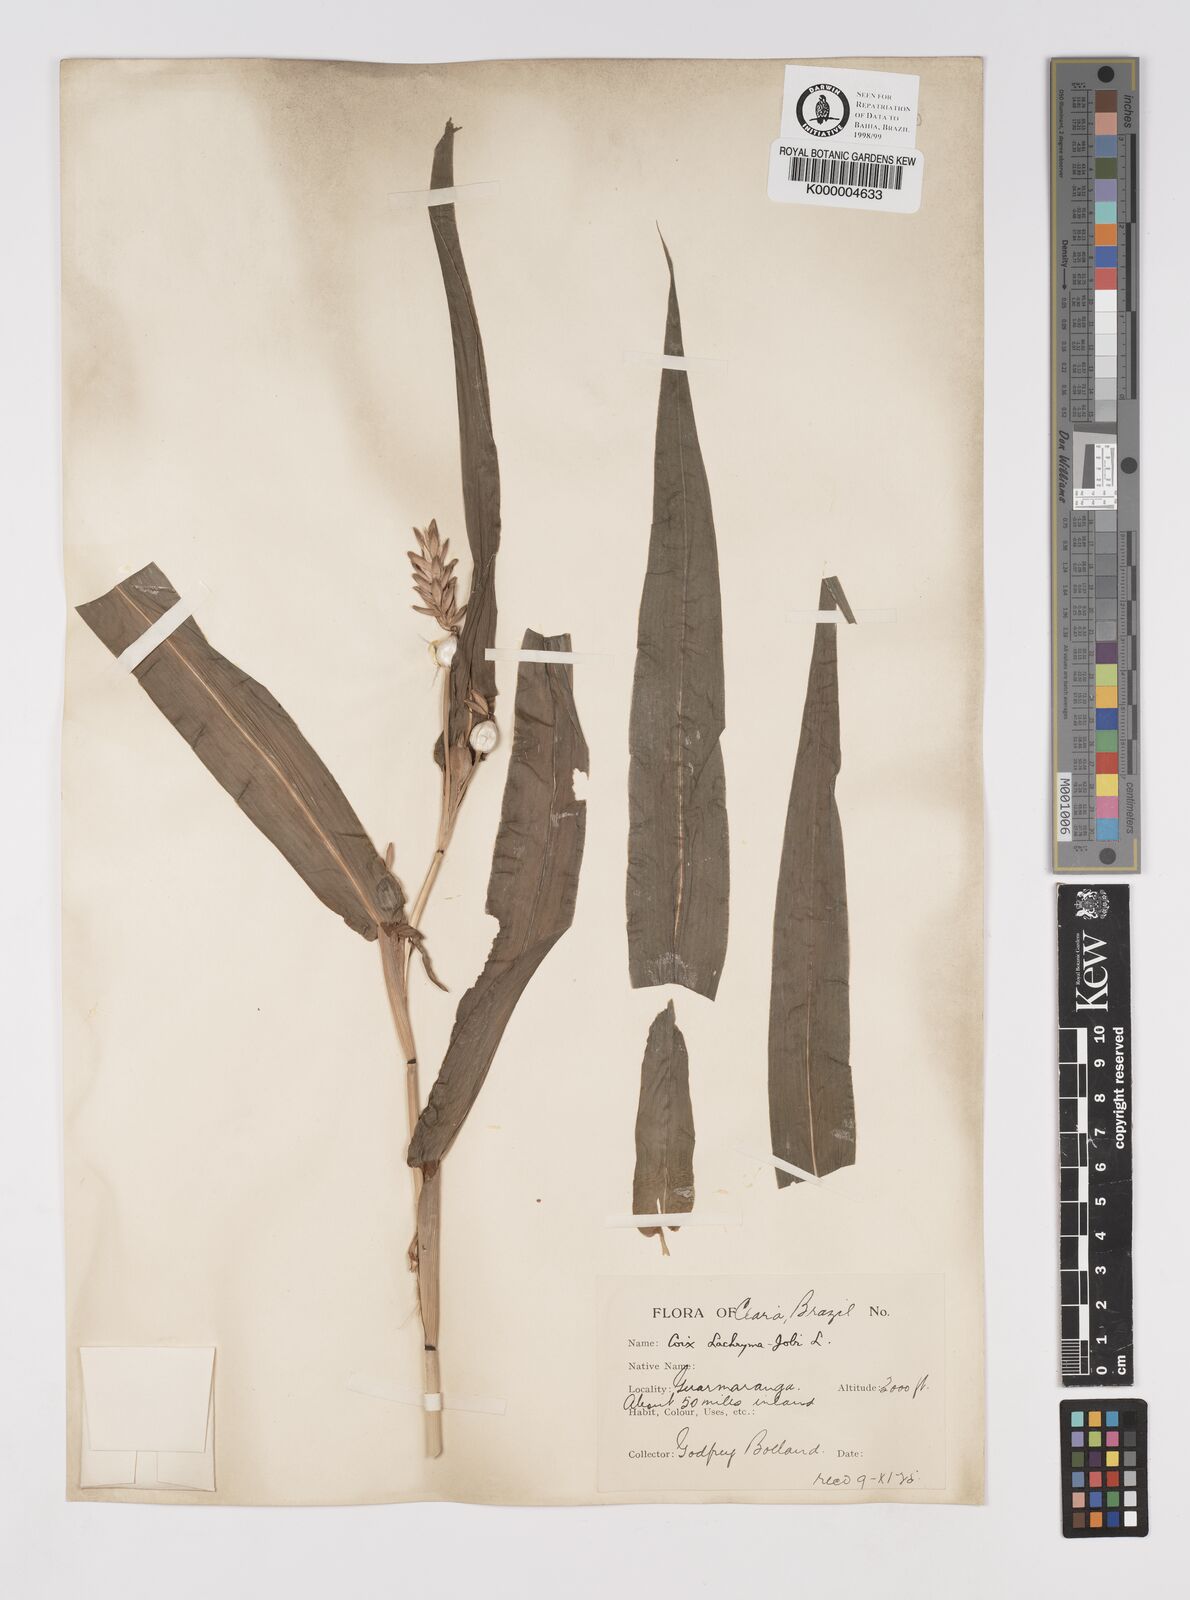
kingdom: Plantae
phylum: Tracheophyta
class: Liliopsida
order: Poales
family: Poaceae
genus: Coix
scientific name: Coix lacryma-jobi
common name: Job's tears
